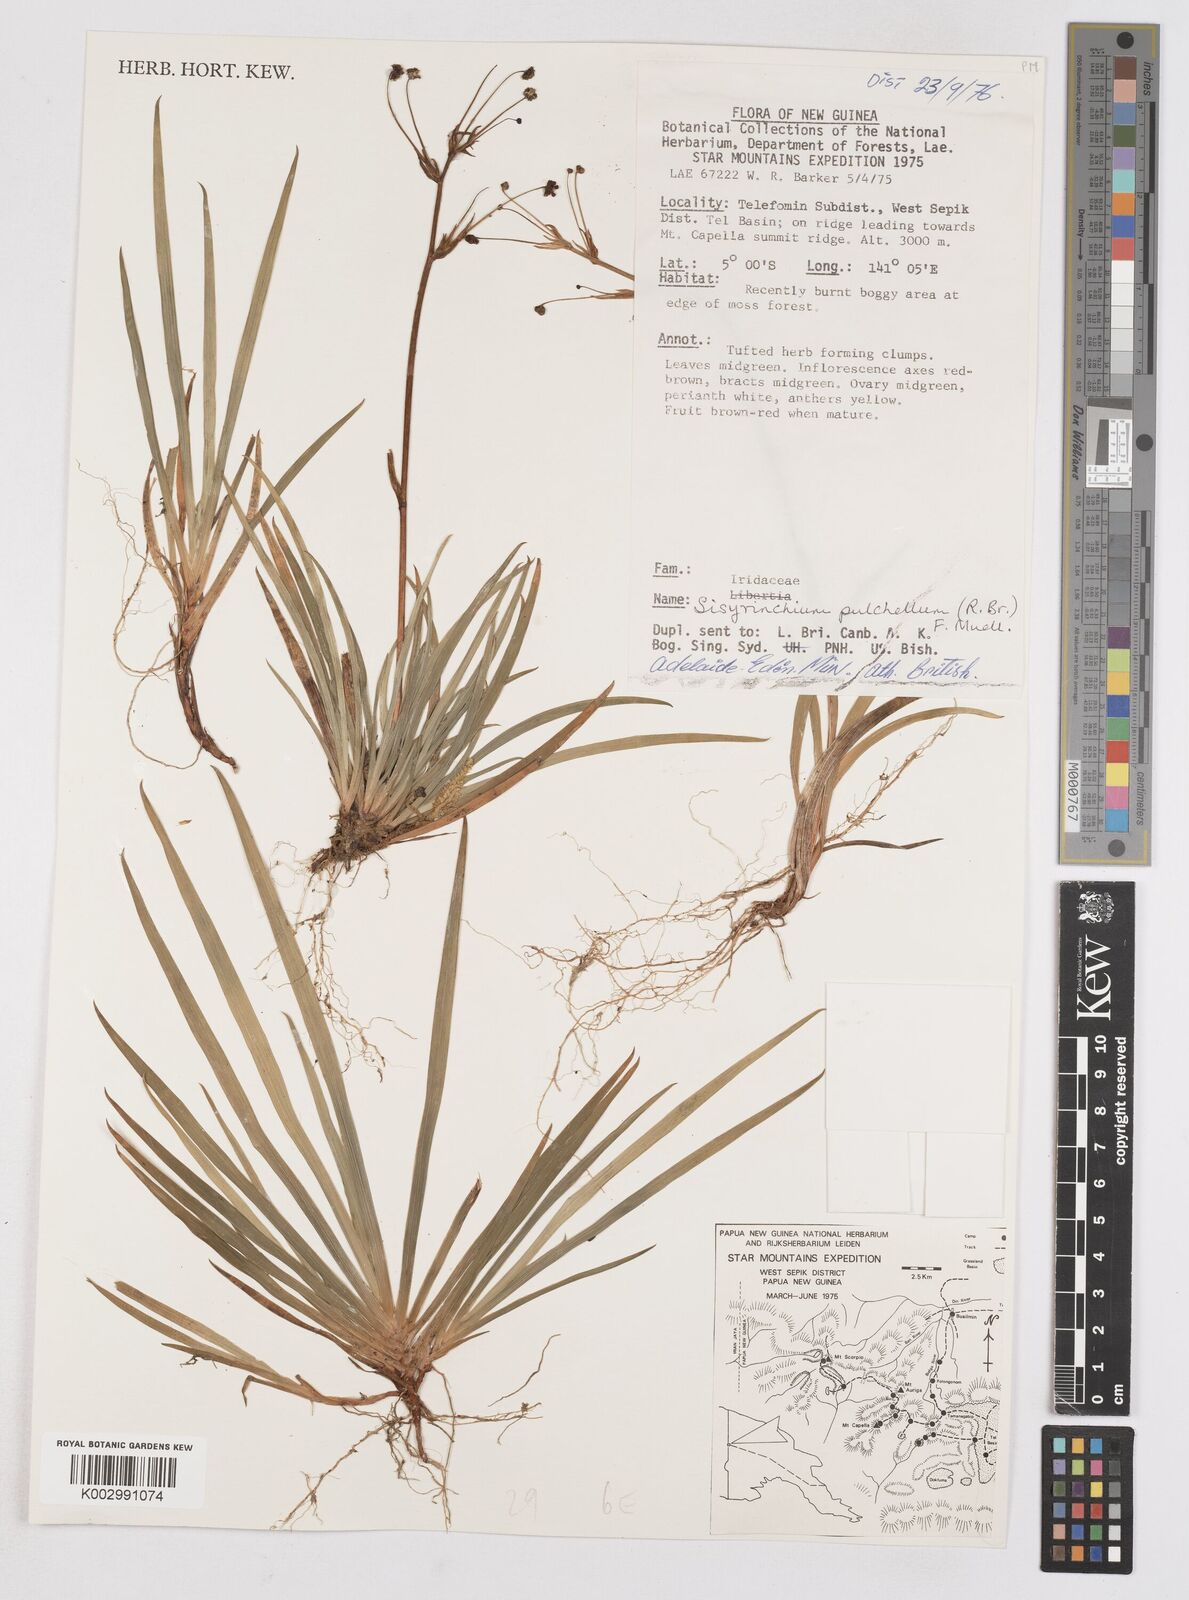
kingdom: Plantae
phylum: Tracheophyta
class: Liliopsida
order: Asparagales
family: Iridaceae
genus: Libertia
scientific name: Libertia pulchella
